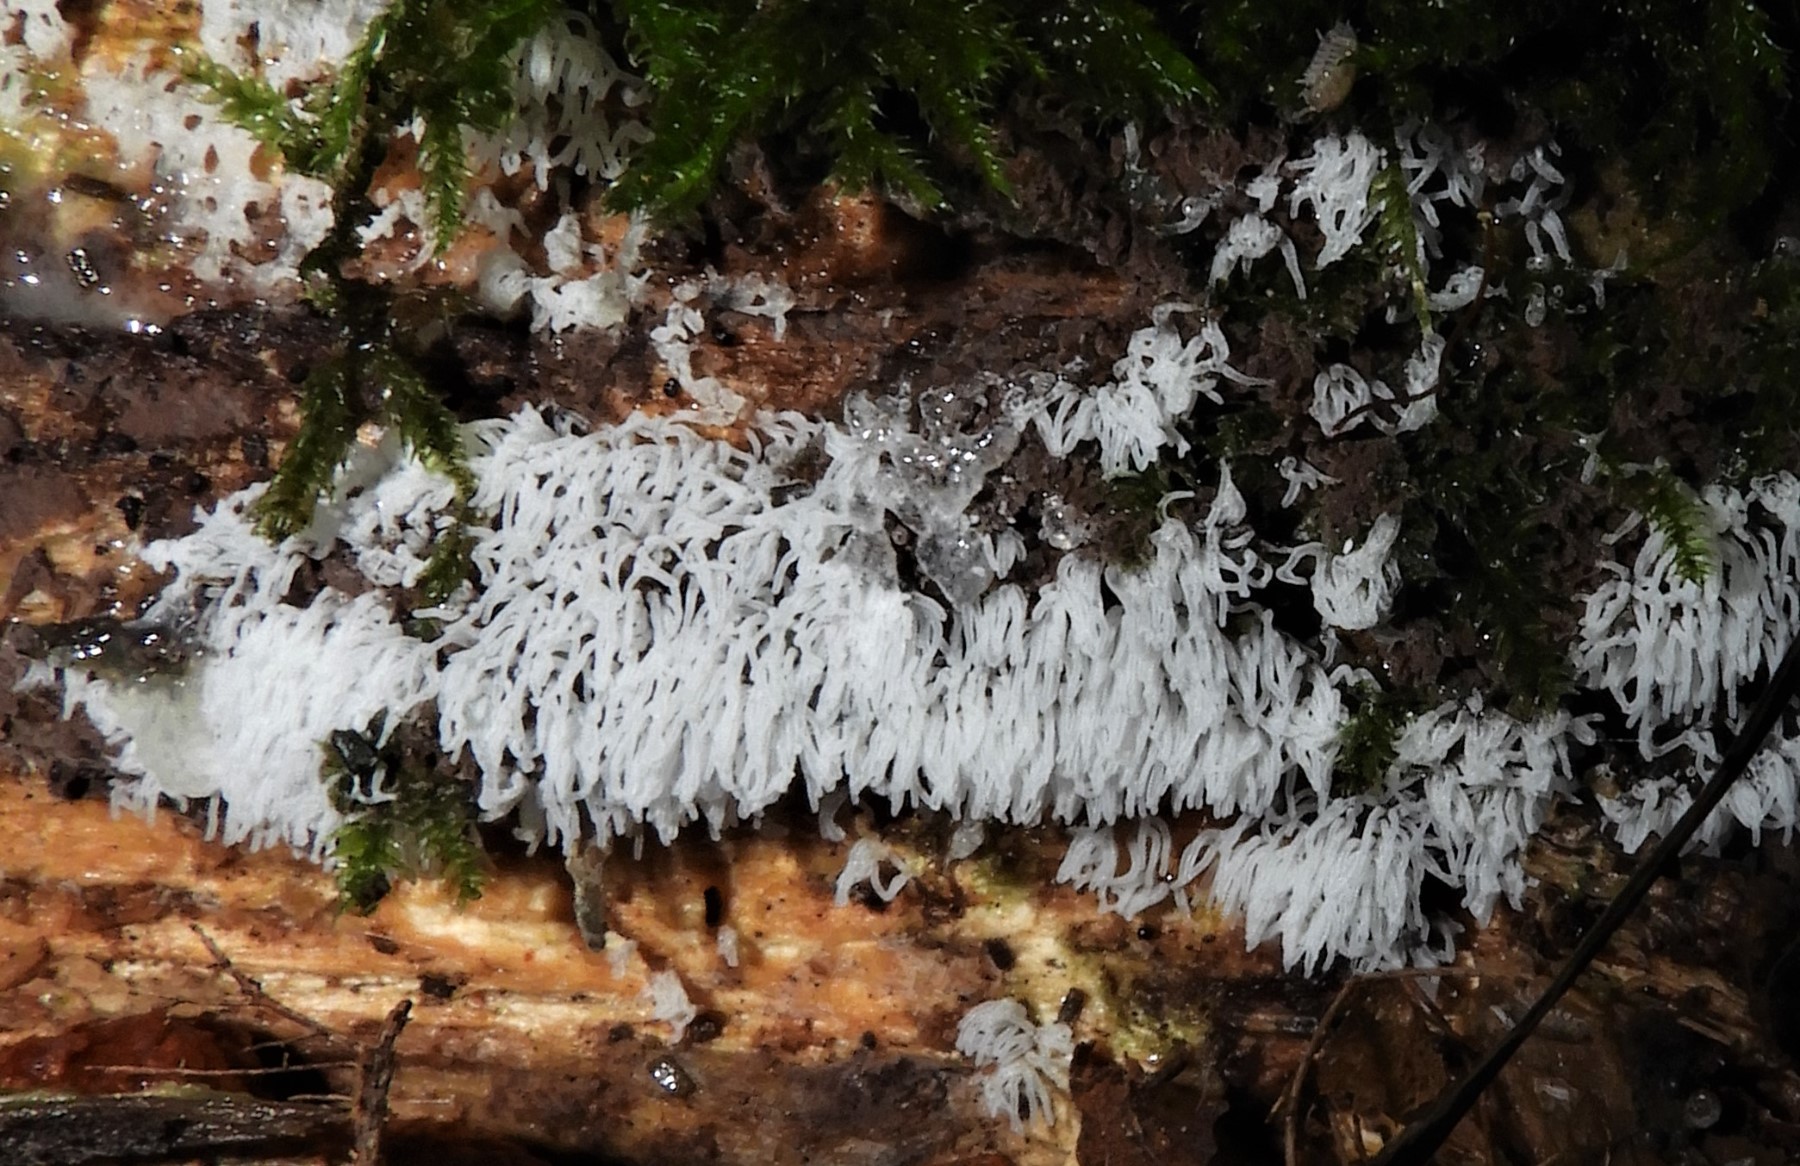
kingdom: Protozoa
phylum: Mycetozoa
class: Protosteliomycetes
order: Ceratiomyxales
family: Ceratiomyxaceae
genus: Ceratiomyxa
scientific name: Ceratiomyxa fruticulosa
